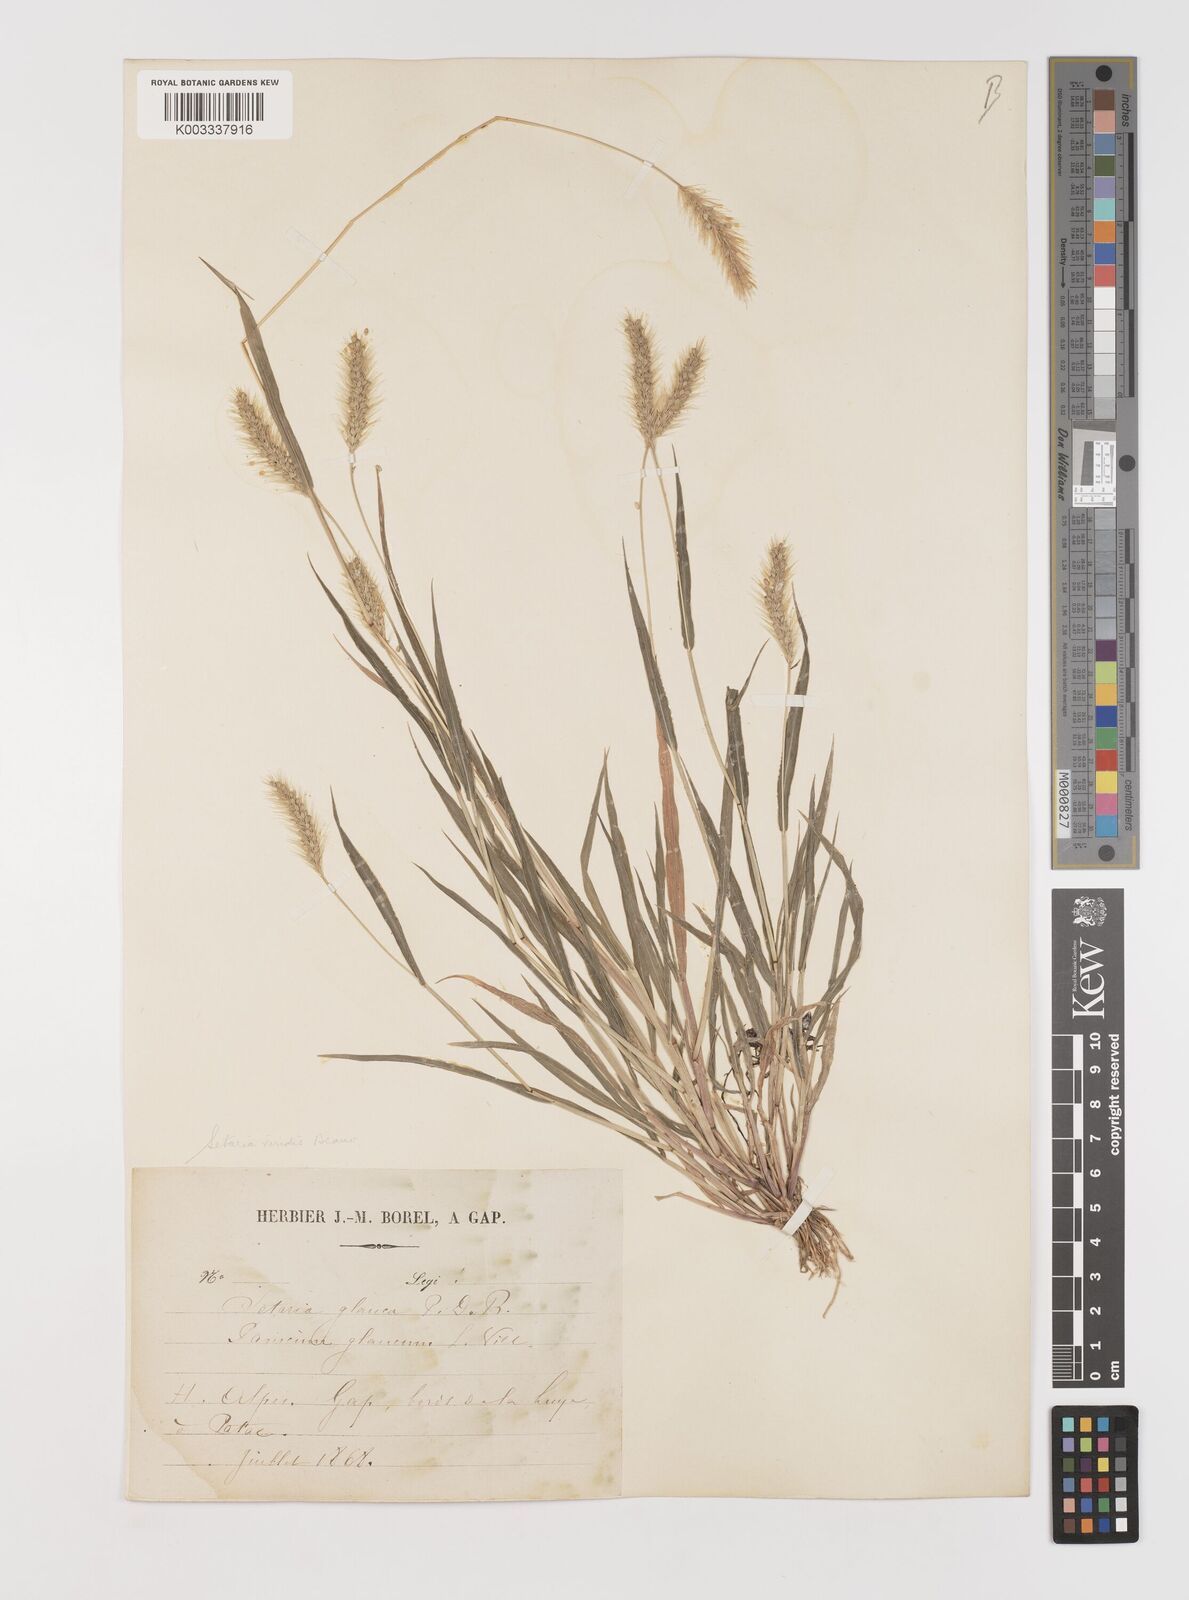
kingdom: Plantae
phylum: Tracheophyta
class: Liliopsida
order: Poales
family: Poaceae
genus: Setaria
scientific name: Setaria viridis
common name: Green bristlegrass
